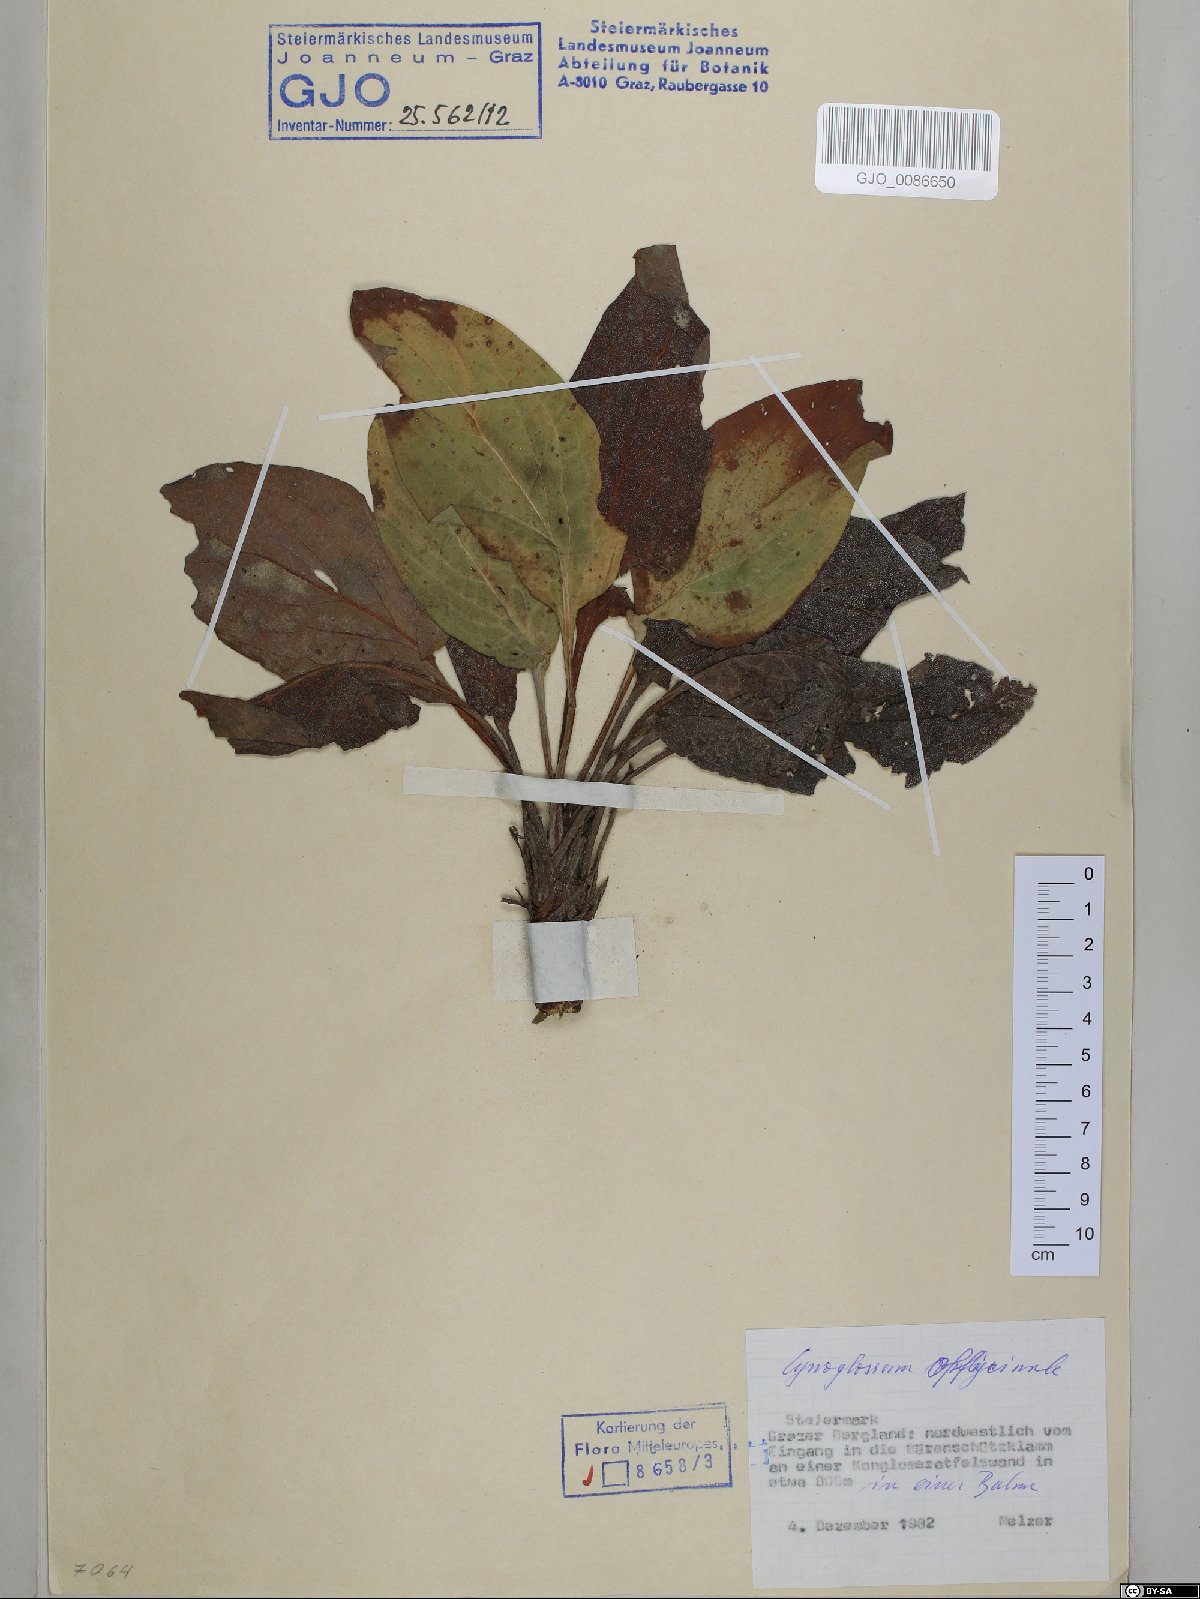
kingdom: Plantae
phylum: Tracheophyta
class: Magnoliopsida
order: Boraginales
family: Boraginaceae
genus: Cynoglossum
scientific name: Cynoglossum officinale
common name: Hound's-tongue
